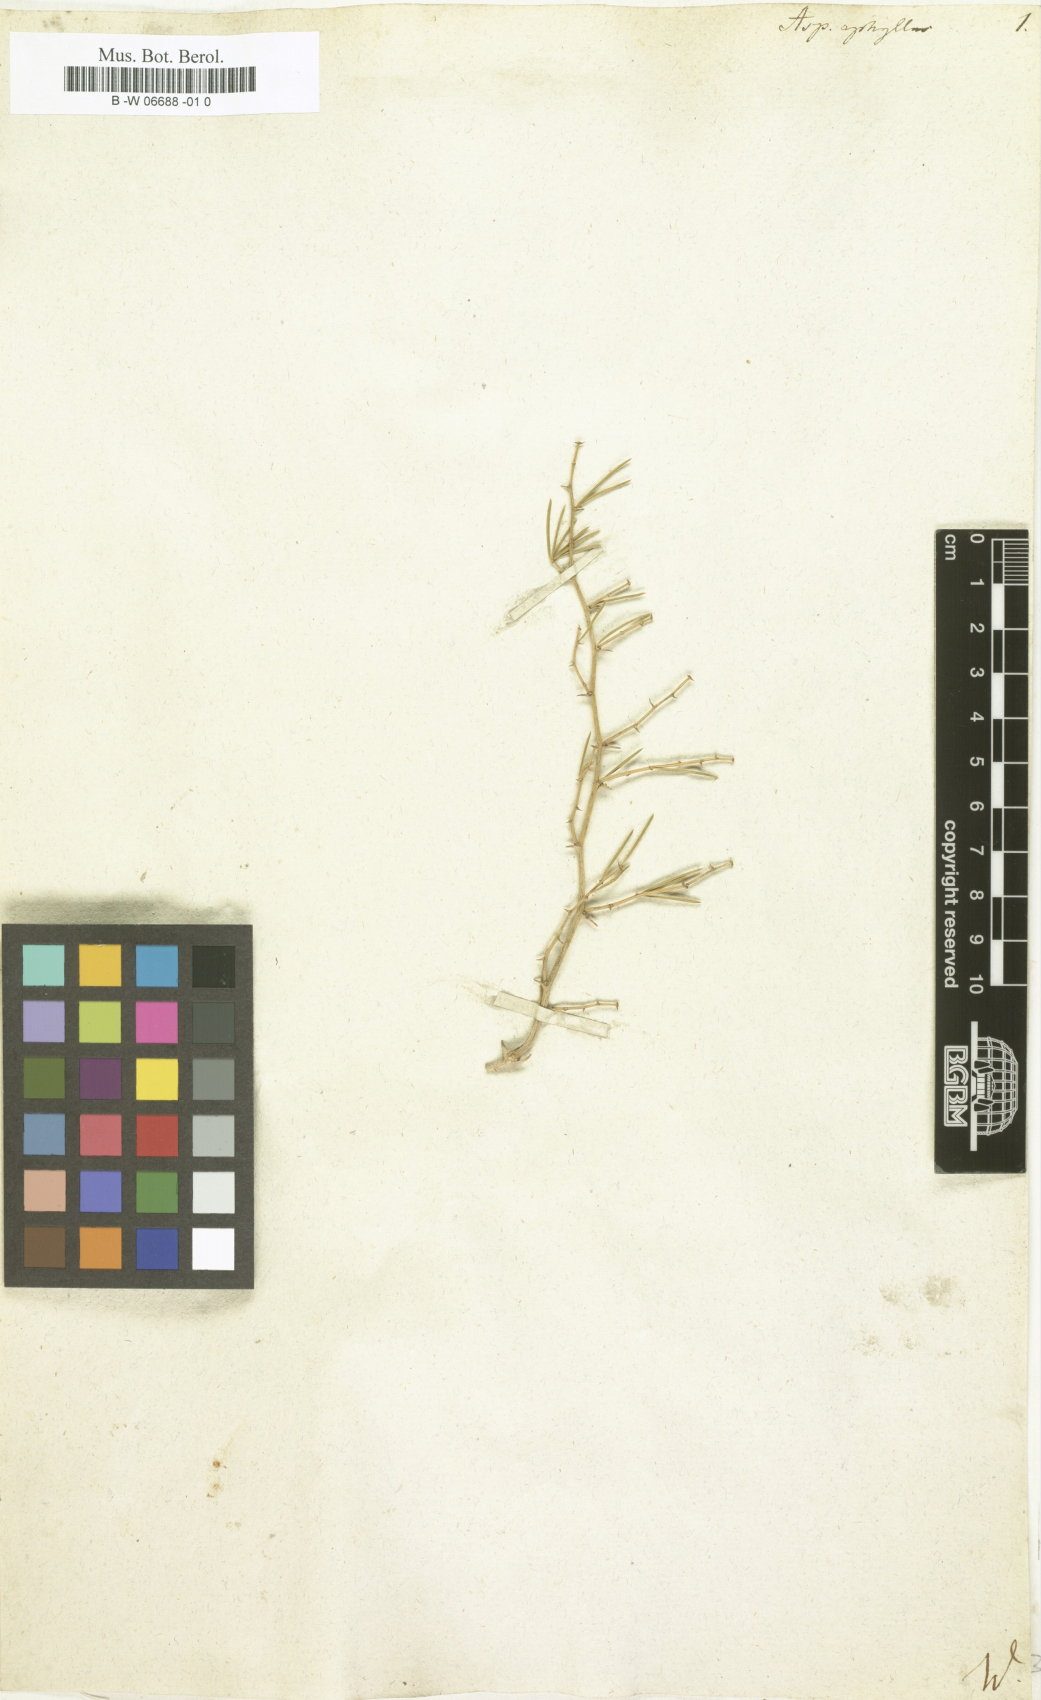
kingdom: Plantae
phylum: Tracheophyta
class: Liliopsida
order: Asparagales
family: Asparagaceae
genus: Asparagus
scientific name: Asparagus aphyllus
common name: Mediterranean asparagus
